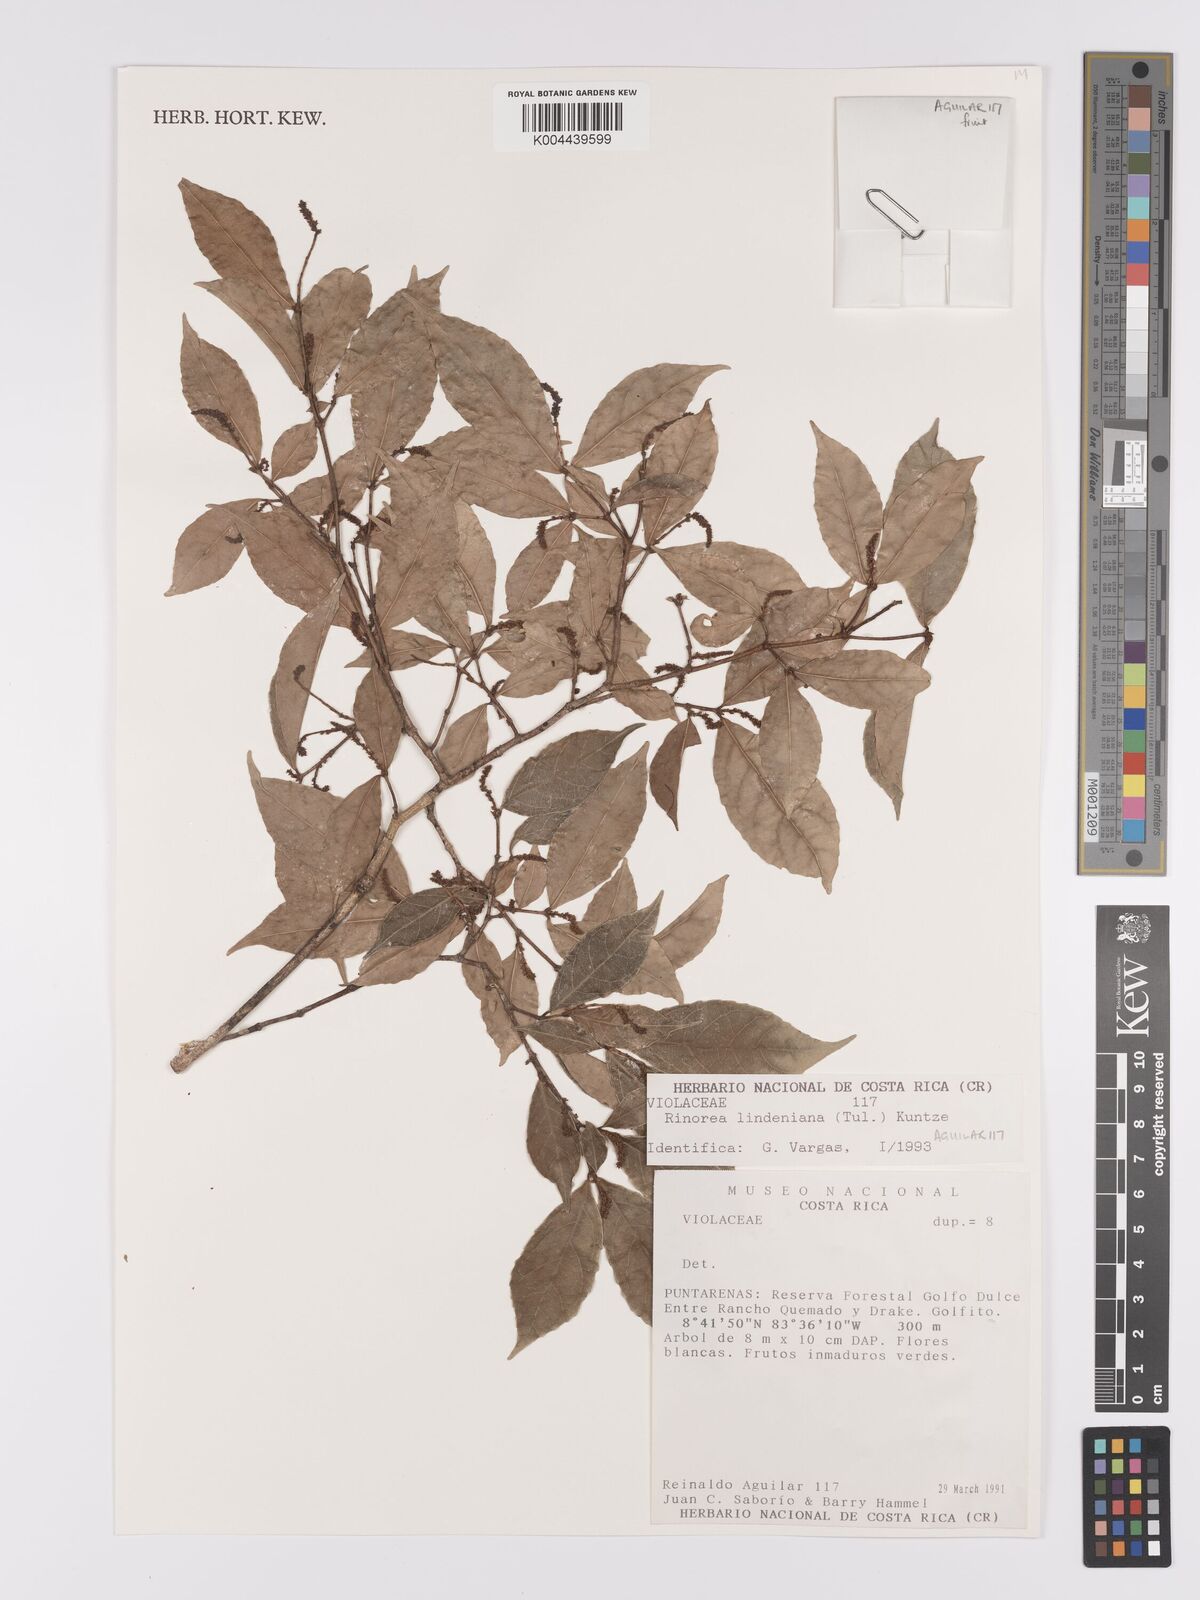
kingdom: Plantae
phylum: Tracheophyta
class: Magnoliopsida
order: Malpighiales
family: Violaceae
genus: Rinorea
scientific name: Rinorea lindeniana
